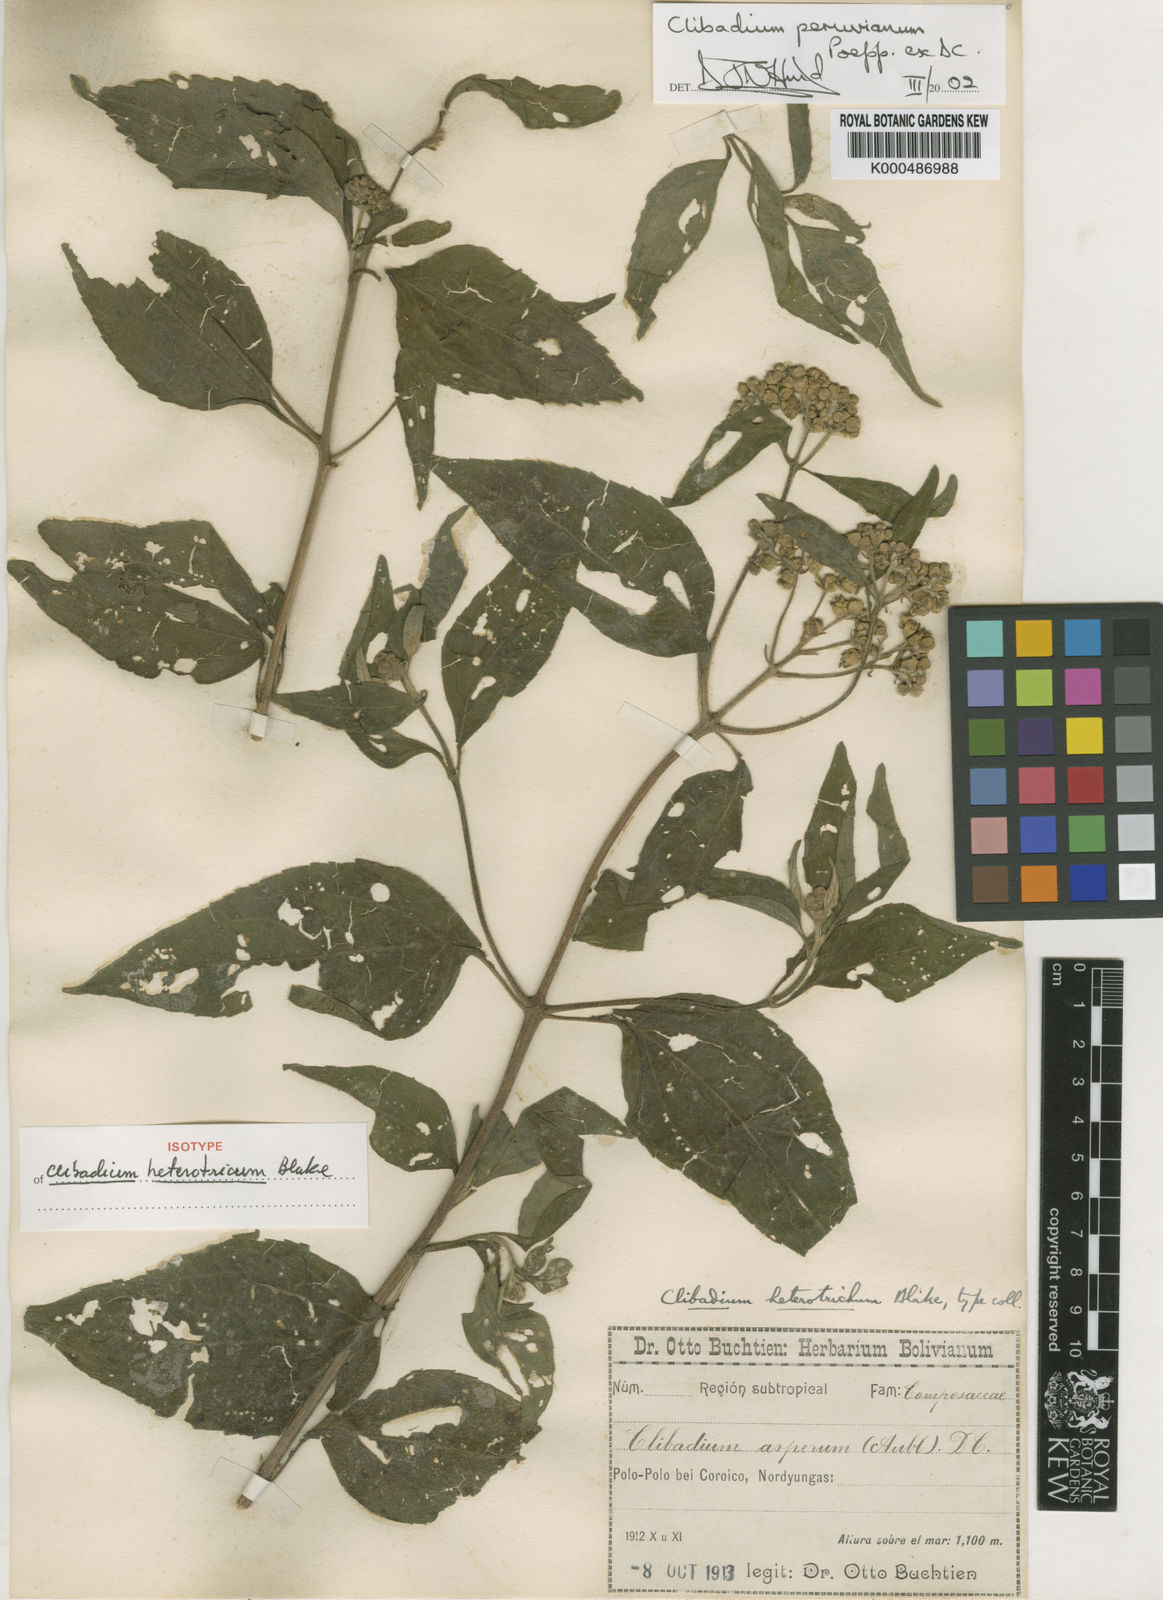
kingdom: Plantae
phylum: Tracheophyta
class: Magnoliopsida
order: Asterales
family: Asteraceae
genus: Clibadium
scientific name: Clibadium peruvianum
